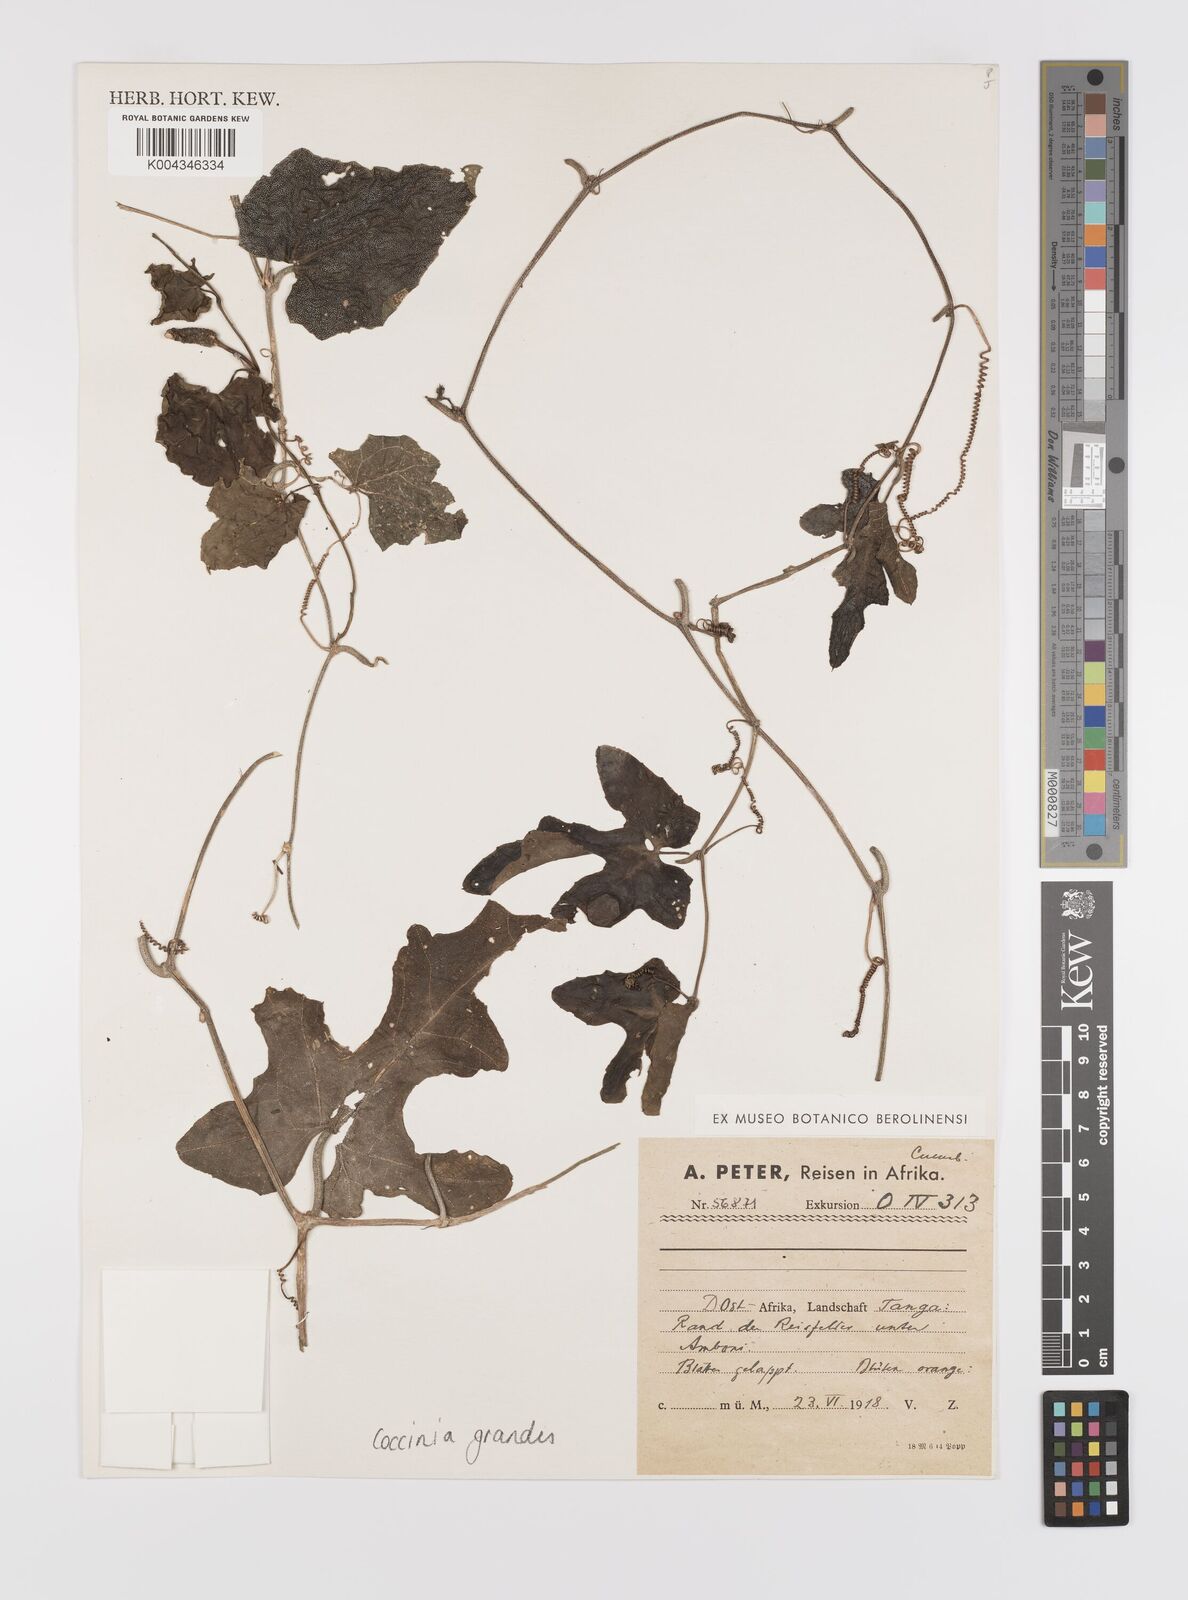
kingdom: Plantae
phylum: Tracheophyta
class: Magnoliopsida
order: Cucurbitales
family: Cucurbitaceae
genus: Coccinia
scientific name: Coccinia grandis
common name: Ivy gourd
